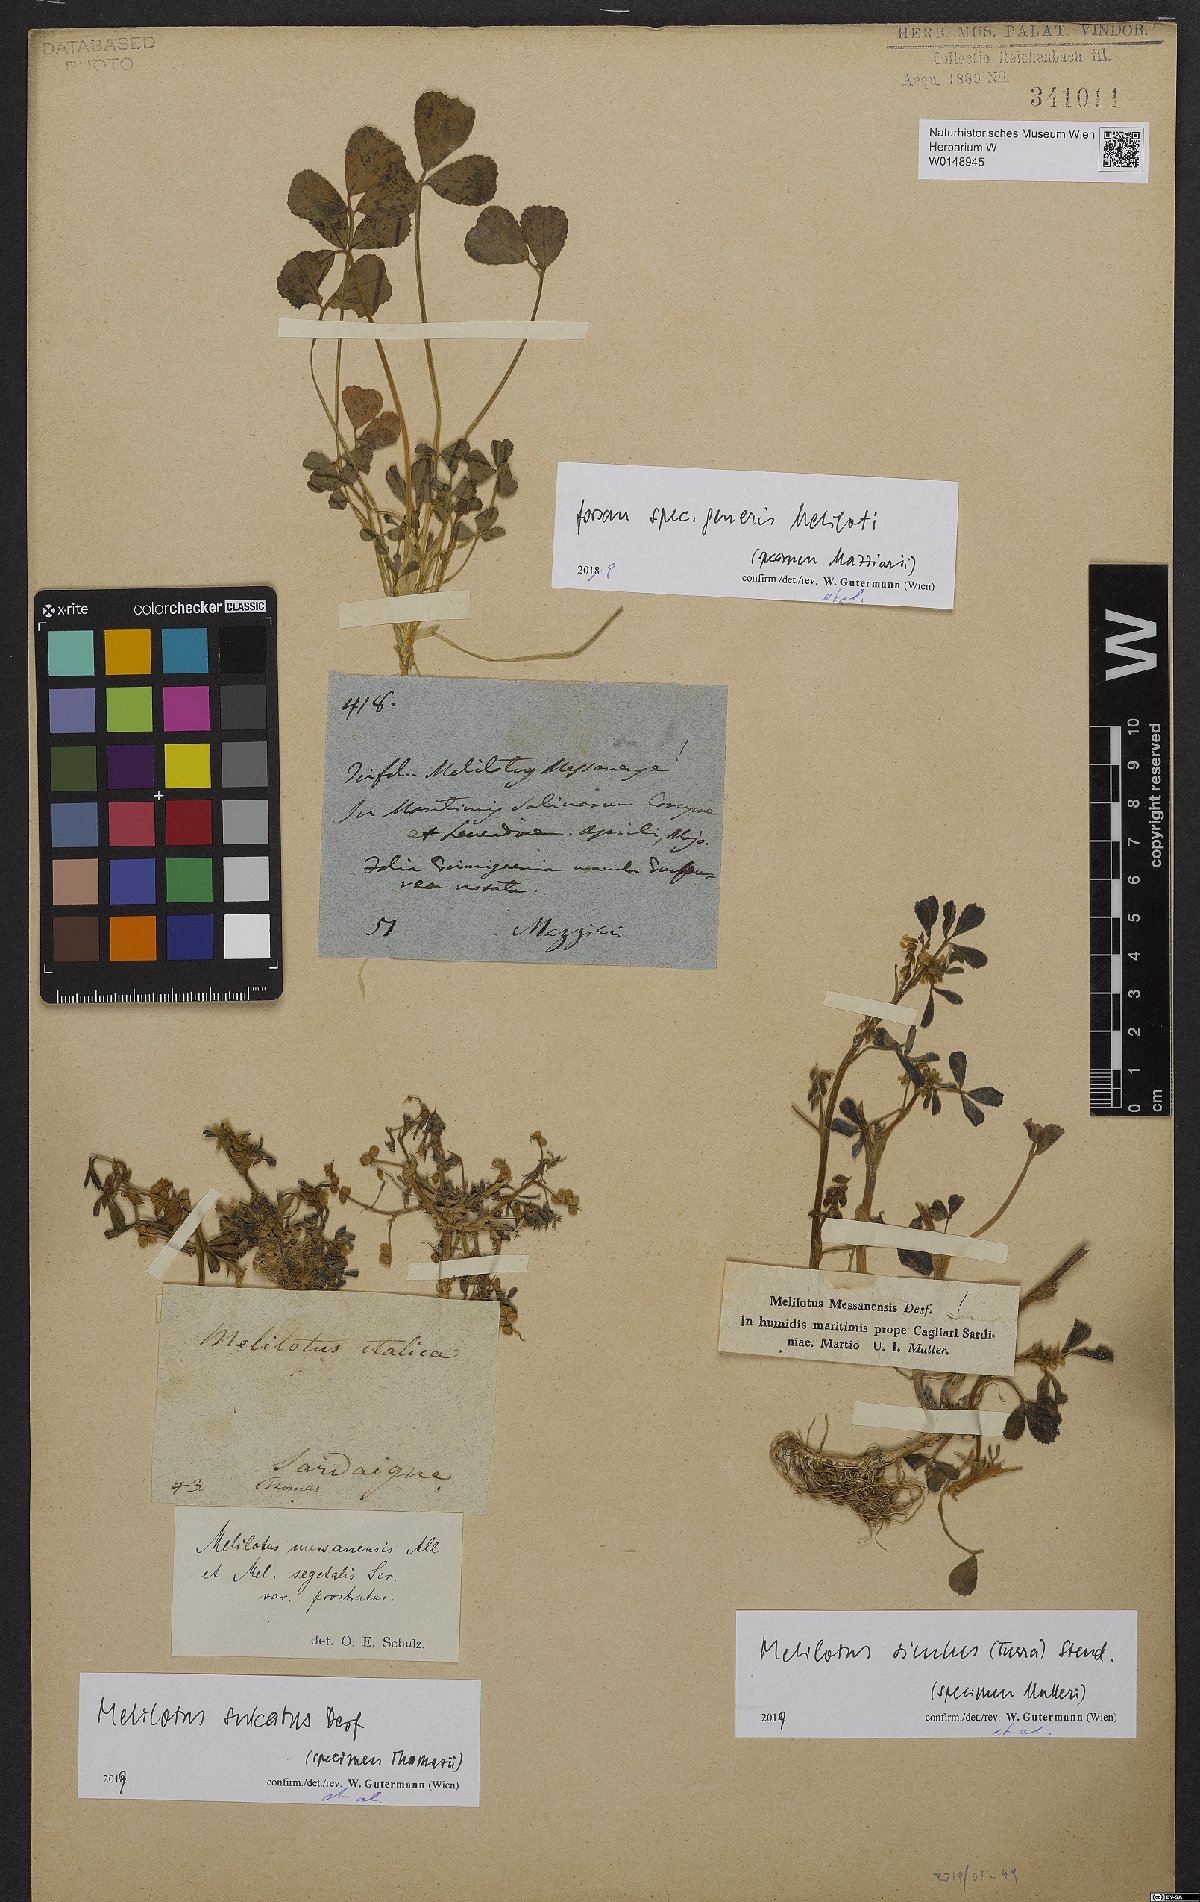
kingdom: Plantae
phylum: Tracheophyta
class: Magnoliopsida
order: Fabales
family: Fabaceae
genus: Melilotus
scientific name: Melilotus
